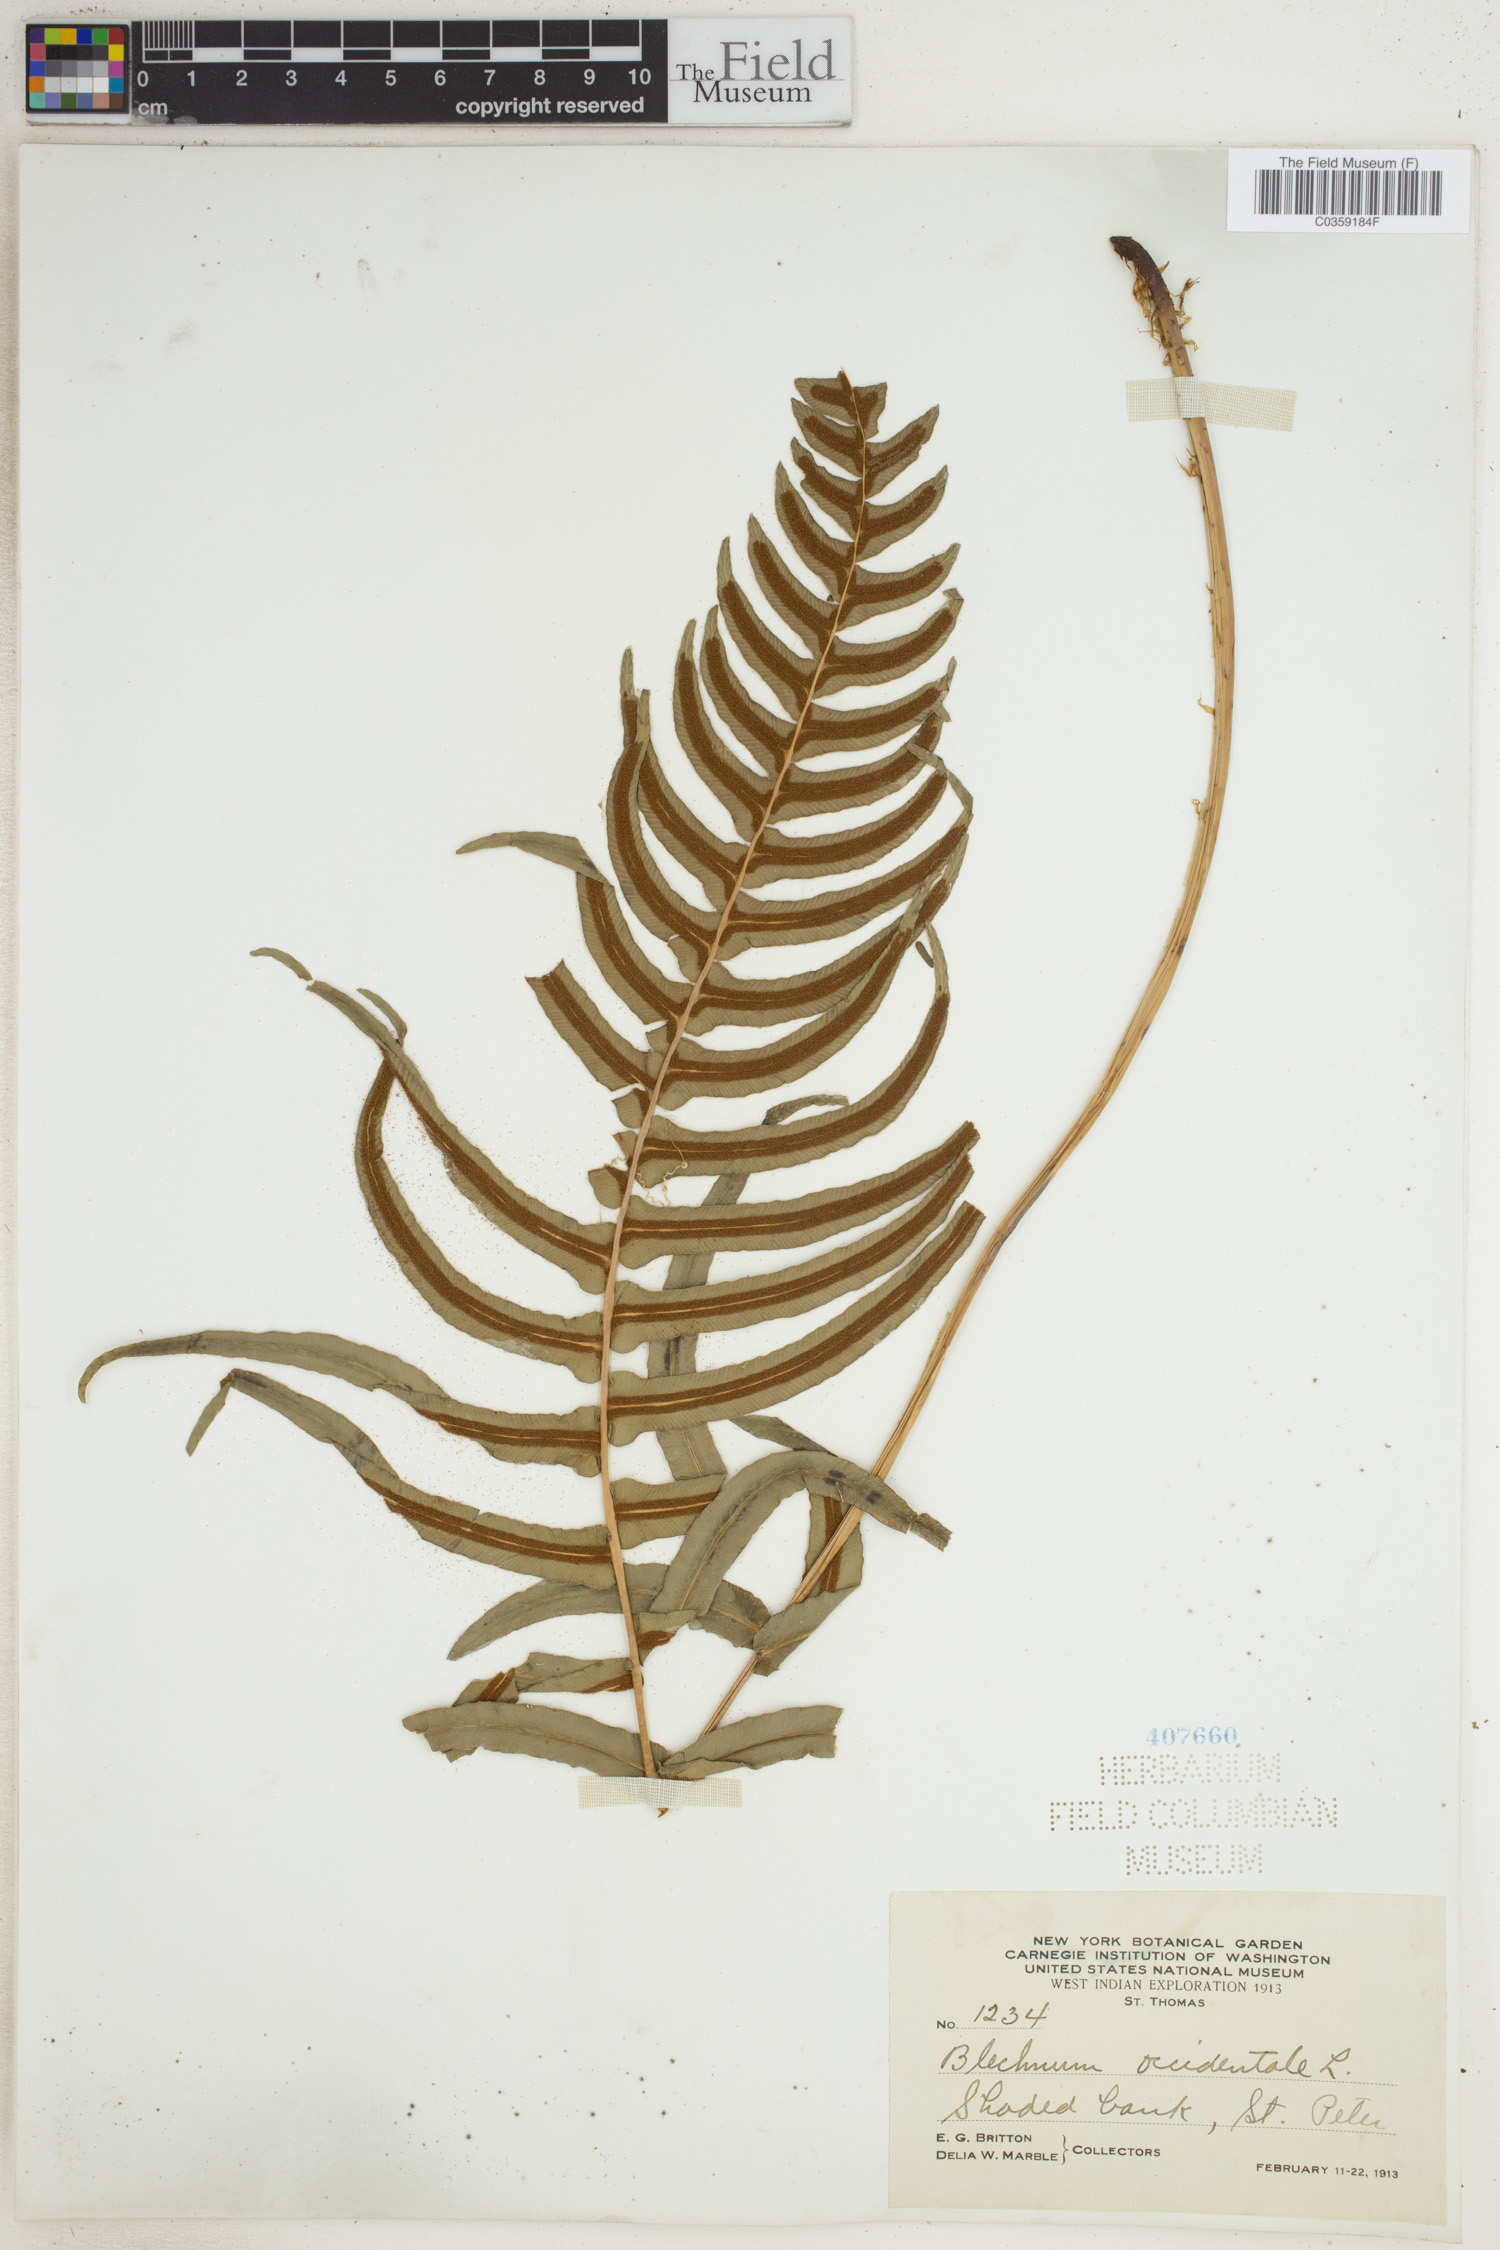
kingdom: Plantae
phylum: Tracheophyta
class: Polypodiopsida
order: Polypodiales
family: Blechnaceae
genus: Blechnum
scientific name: Blechnum occidentale
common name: Hammock fern
